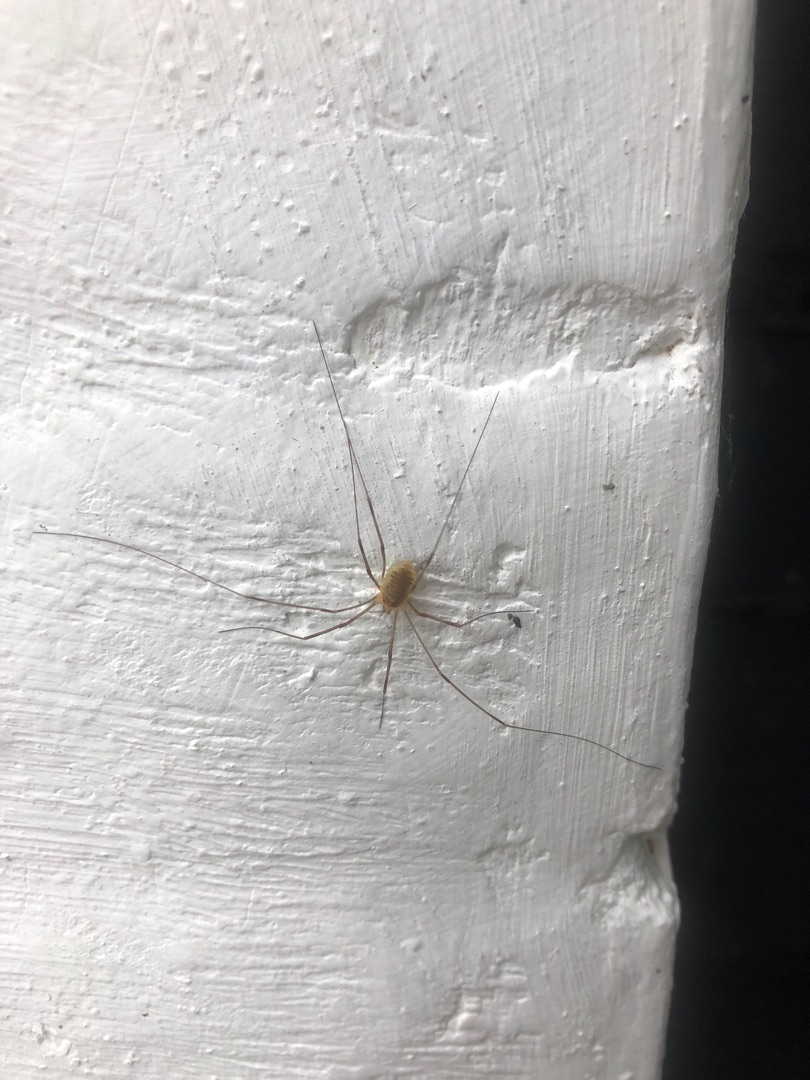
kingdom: Animalia
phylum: Arthropoda
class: Arachnida
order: Opiliones
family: Phalangiidae
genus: Opilio
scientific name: Opilio canestrinii
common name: Orange vægmejer
